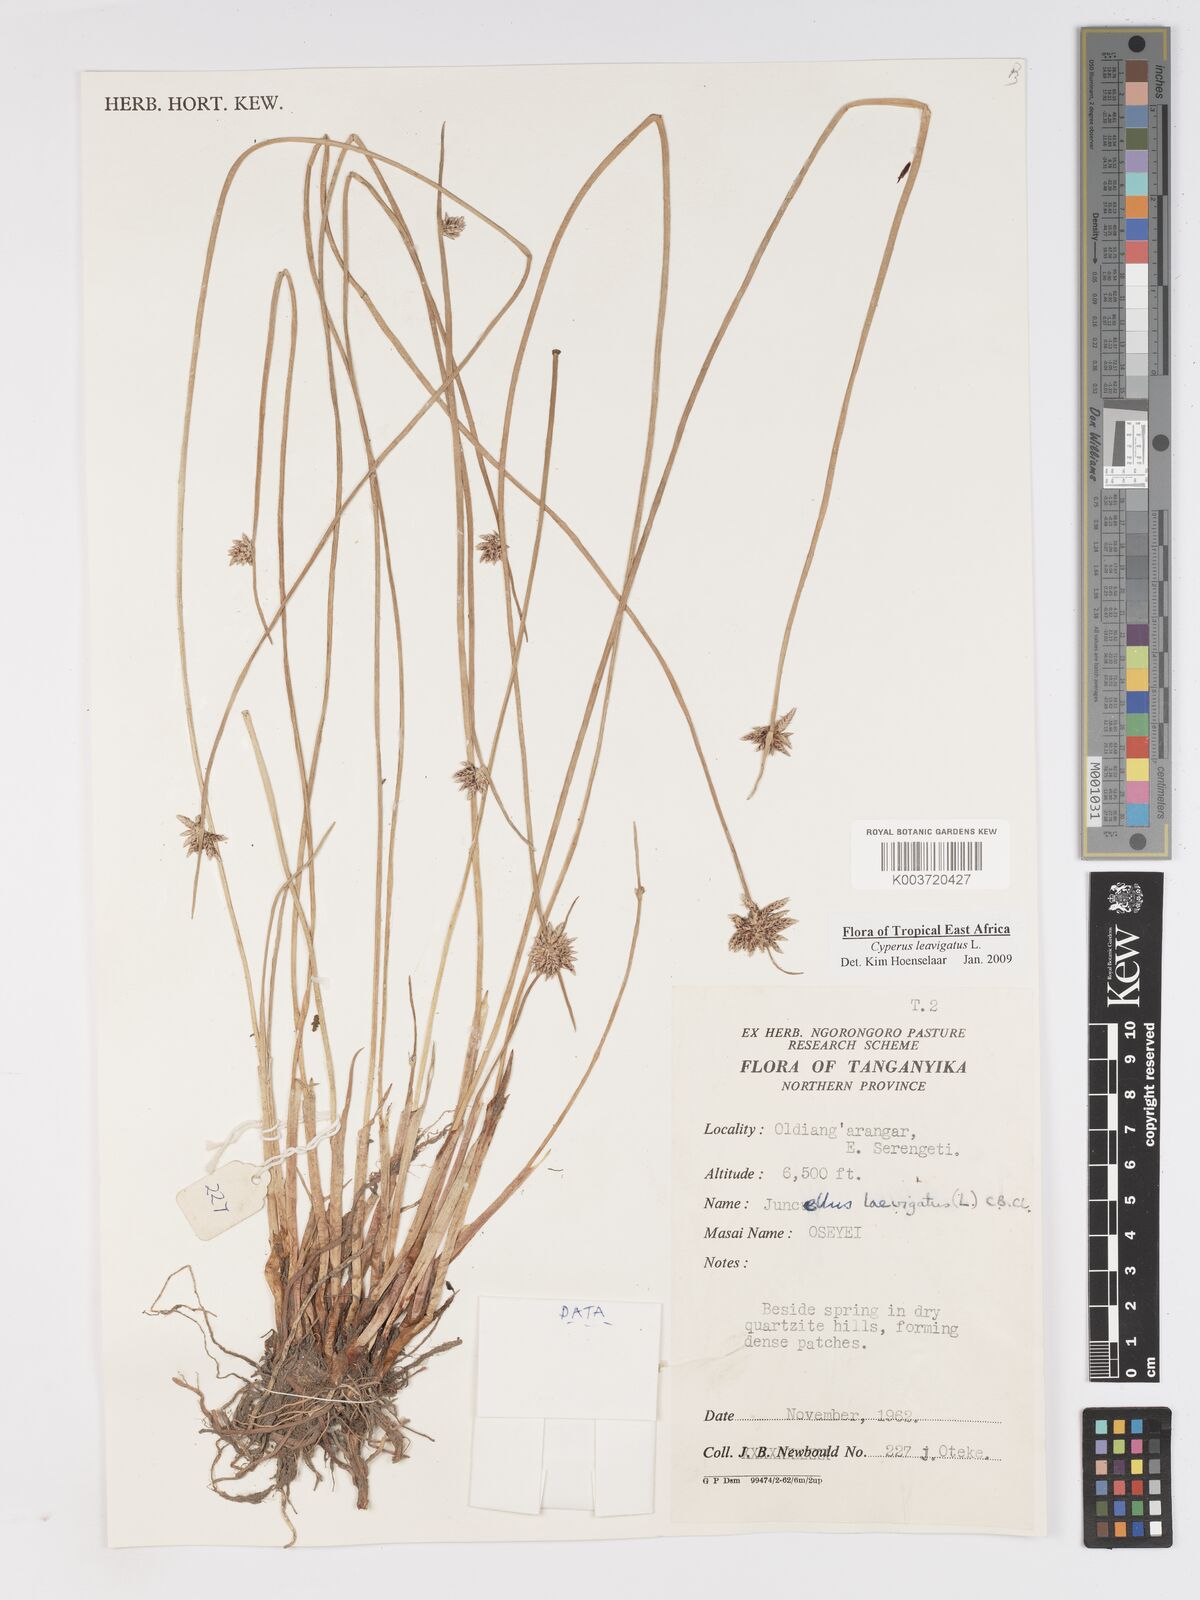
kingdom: Plantae
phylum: Tracheophyta
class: Liliopsida
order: Poales
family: Cyperaceae
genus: Cyperus
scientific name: Cyperus laevigatus
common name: Smooth flat sedge
